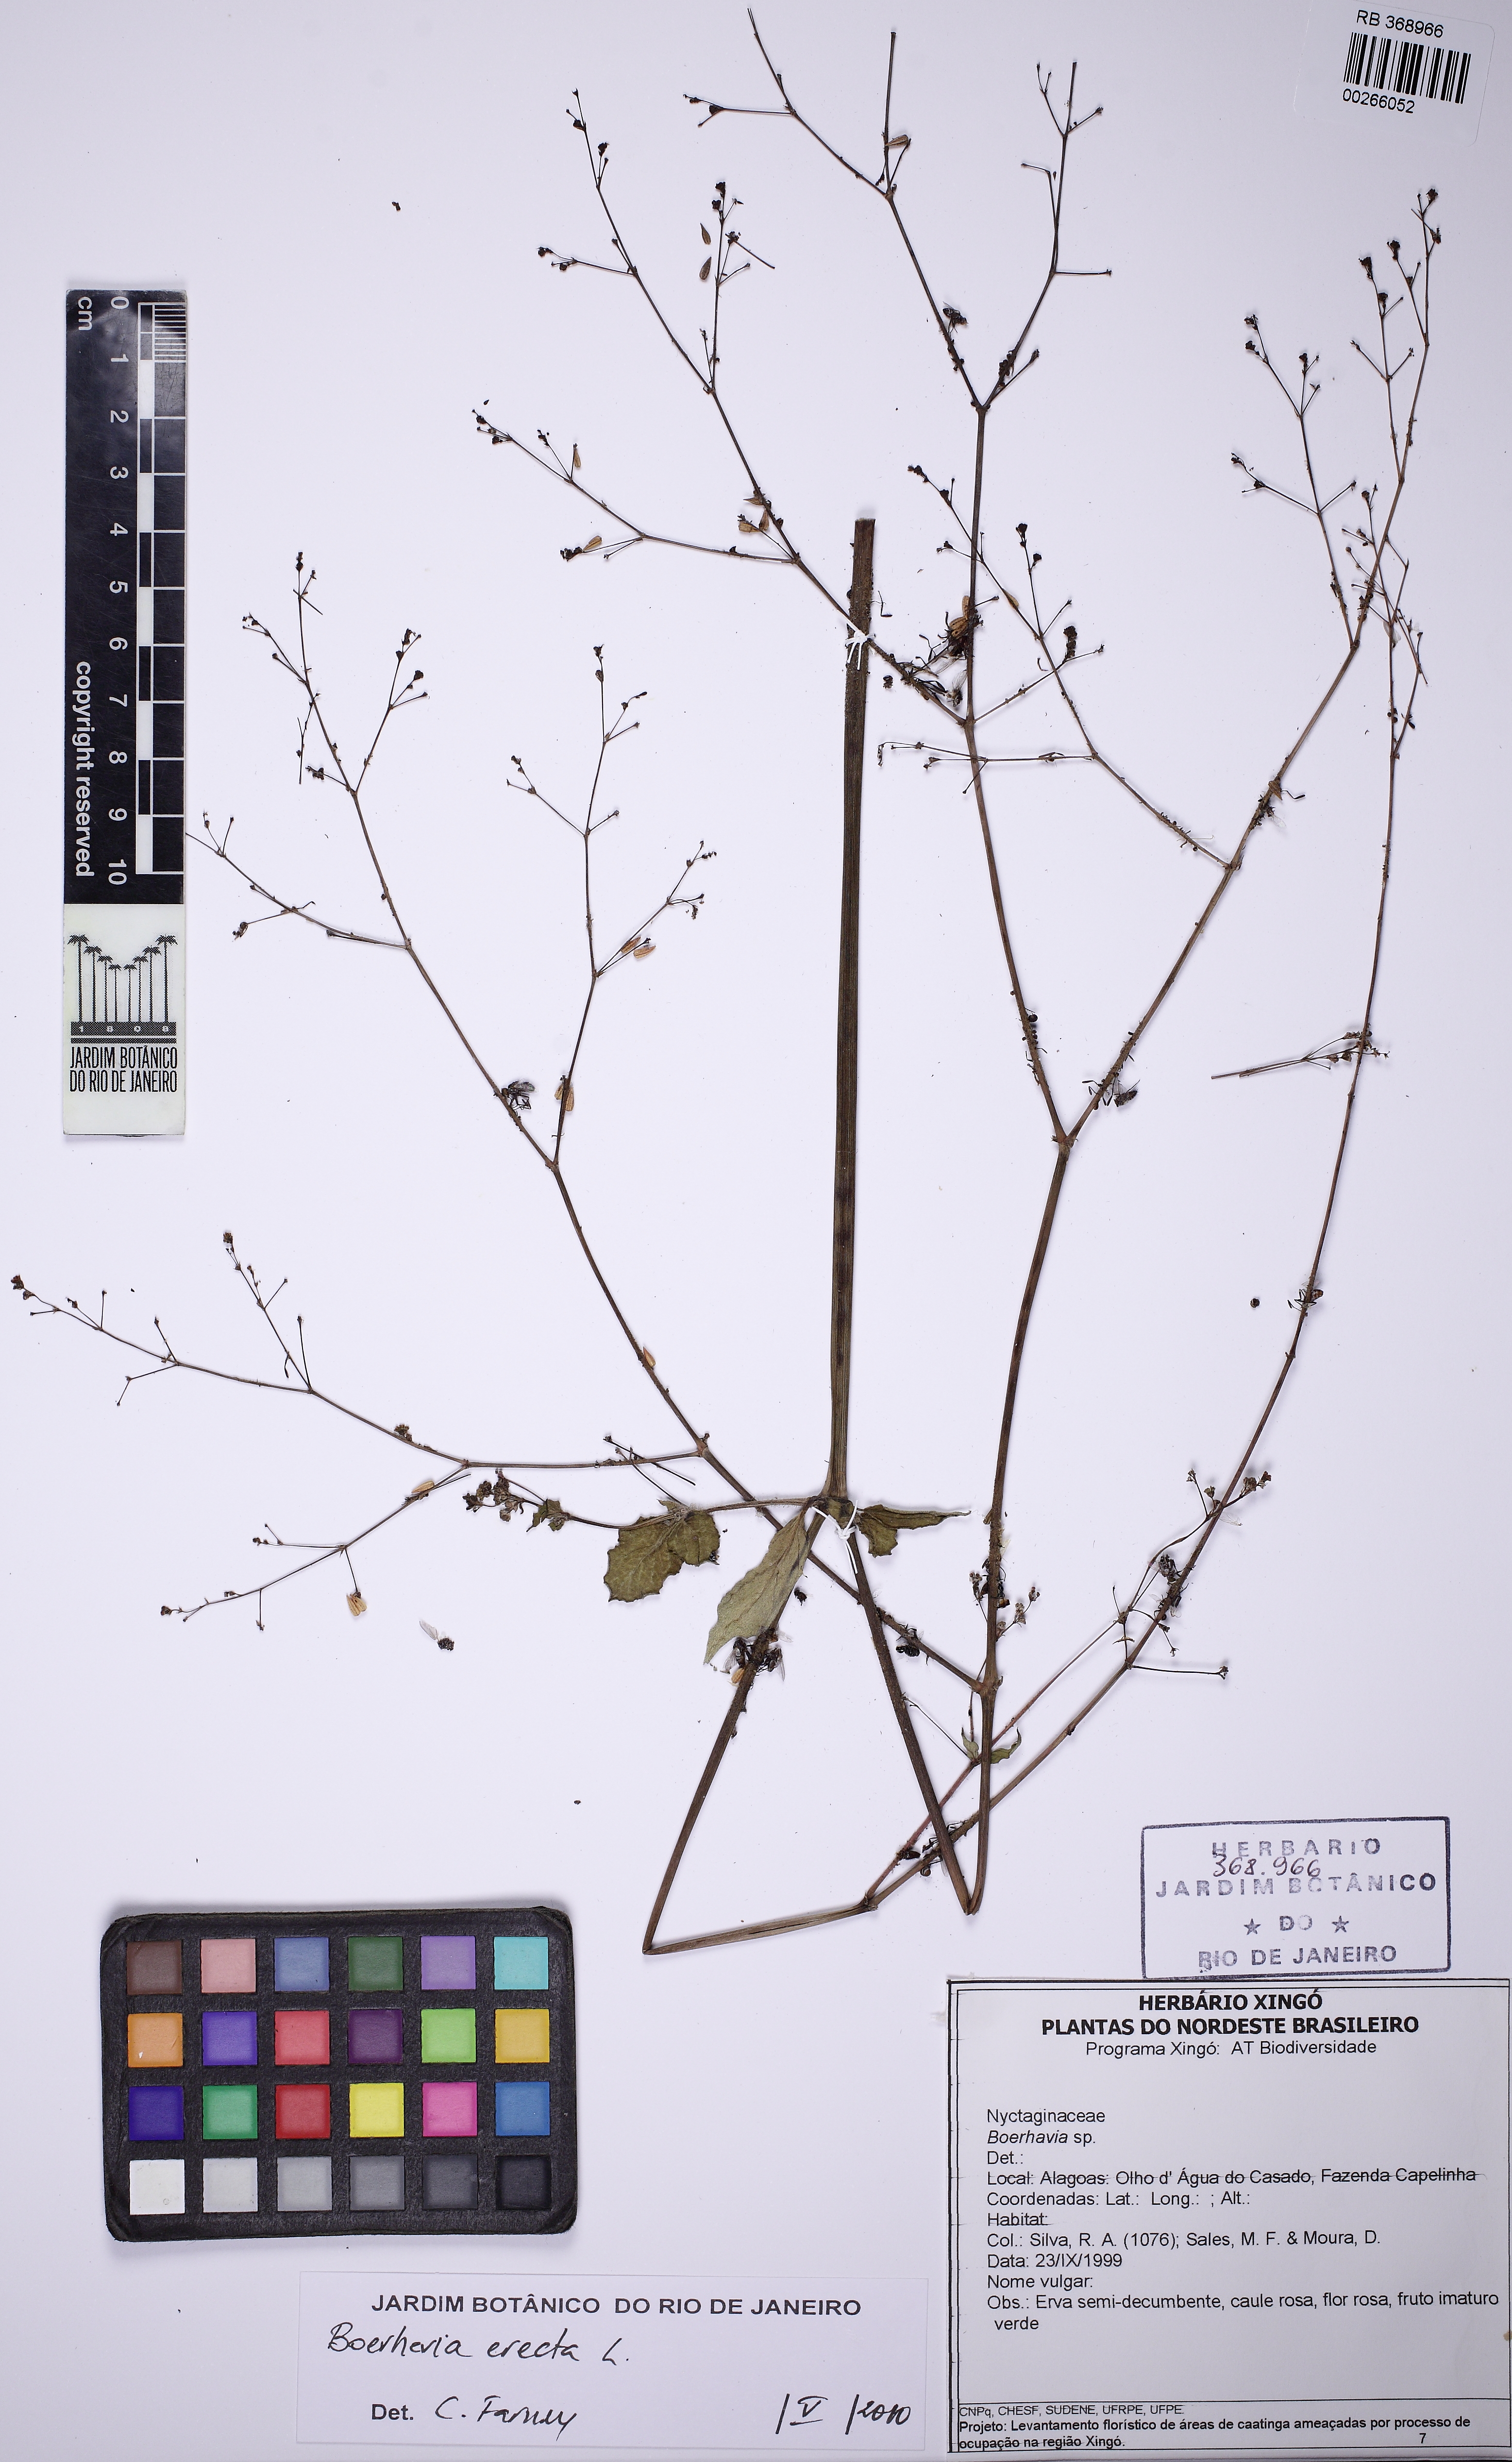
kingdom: Plantae
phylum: Tracheophyta
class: Magnoliopsida
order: Caryophyllales
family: Nyctaginaceae
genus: Boerhavia
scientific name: Boerhavia erecta
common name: Erect spiderling
